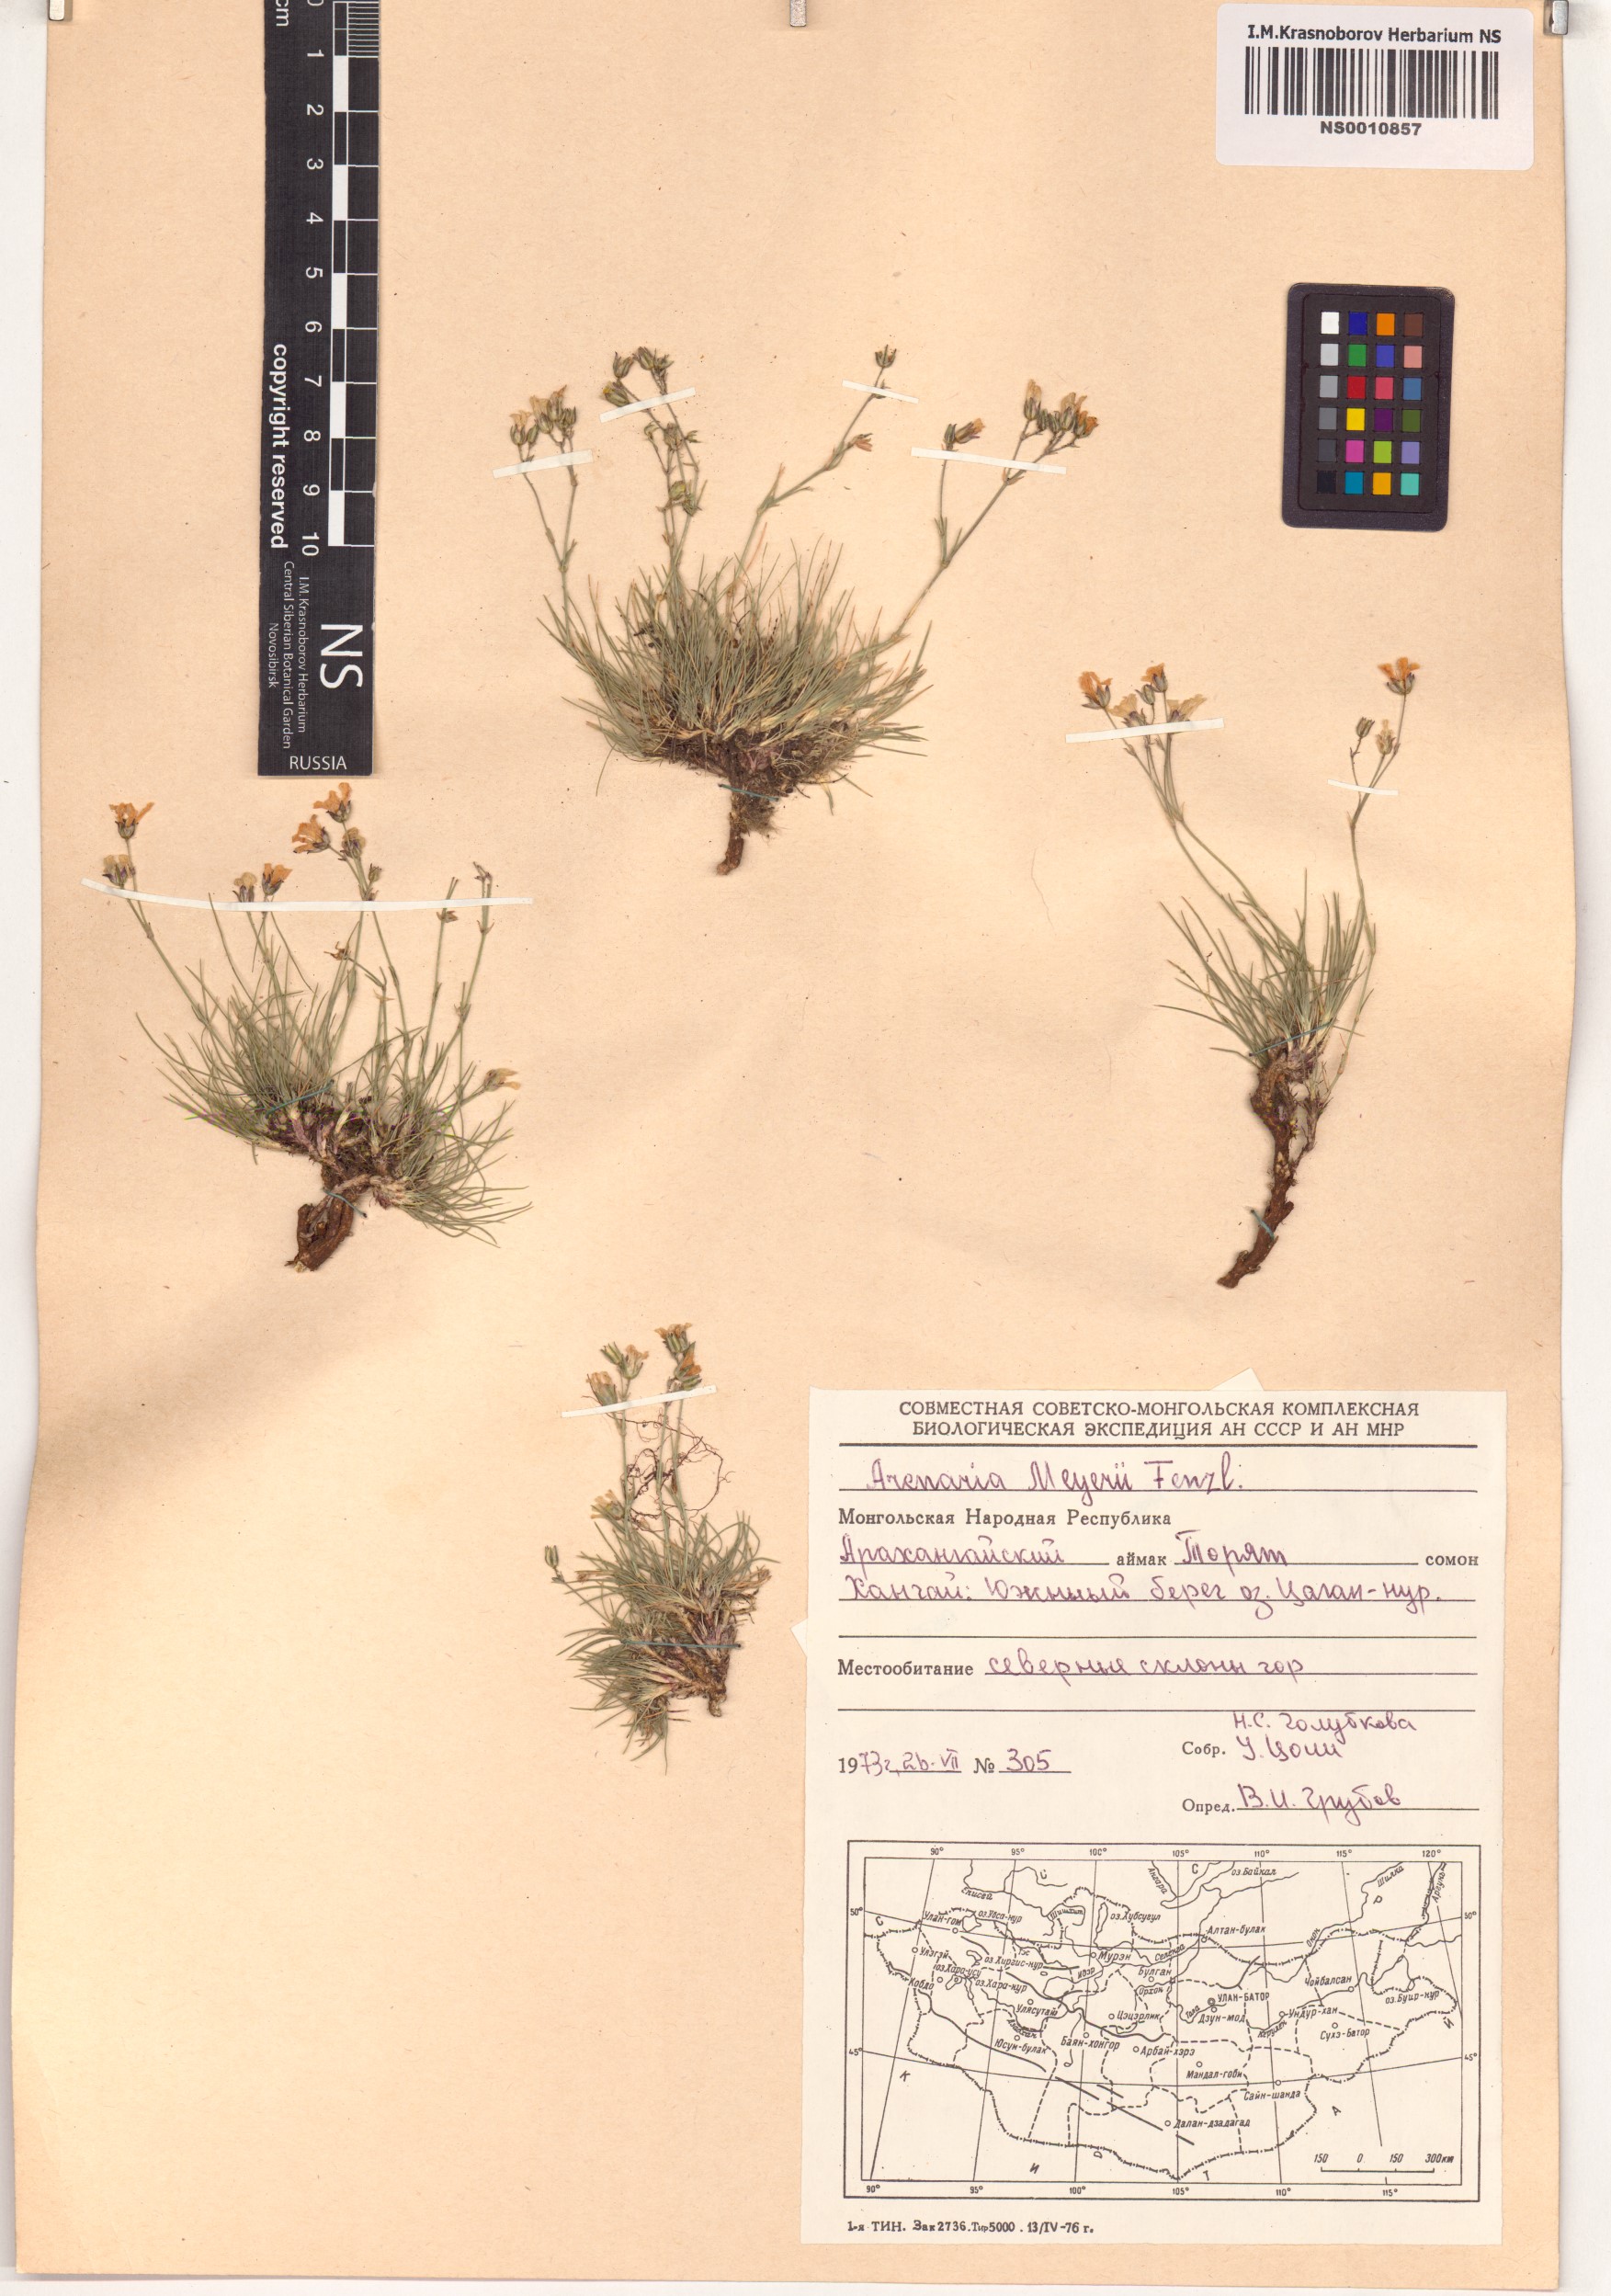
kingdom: Plantae
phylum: Tracheophyta
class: Magnoliopsida
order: Caryophyllales
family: Caryophyllaceae
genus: Eremogone
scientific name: Eremogone meyeri
